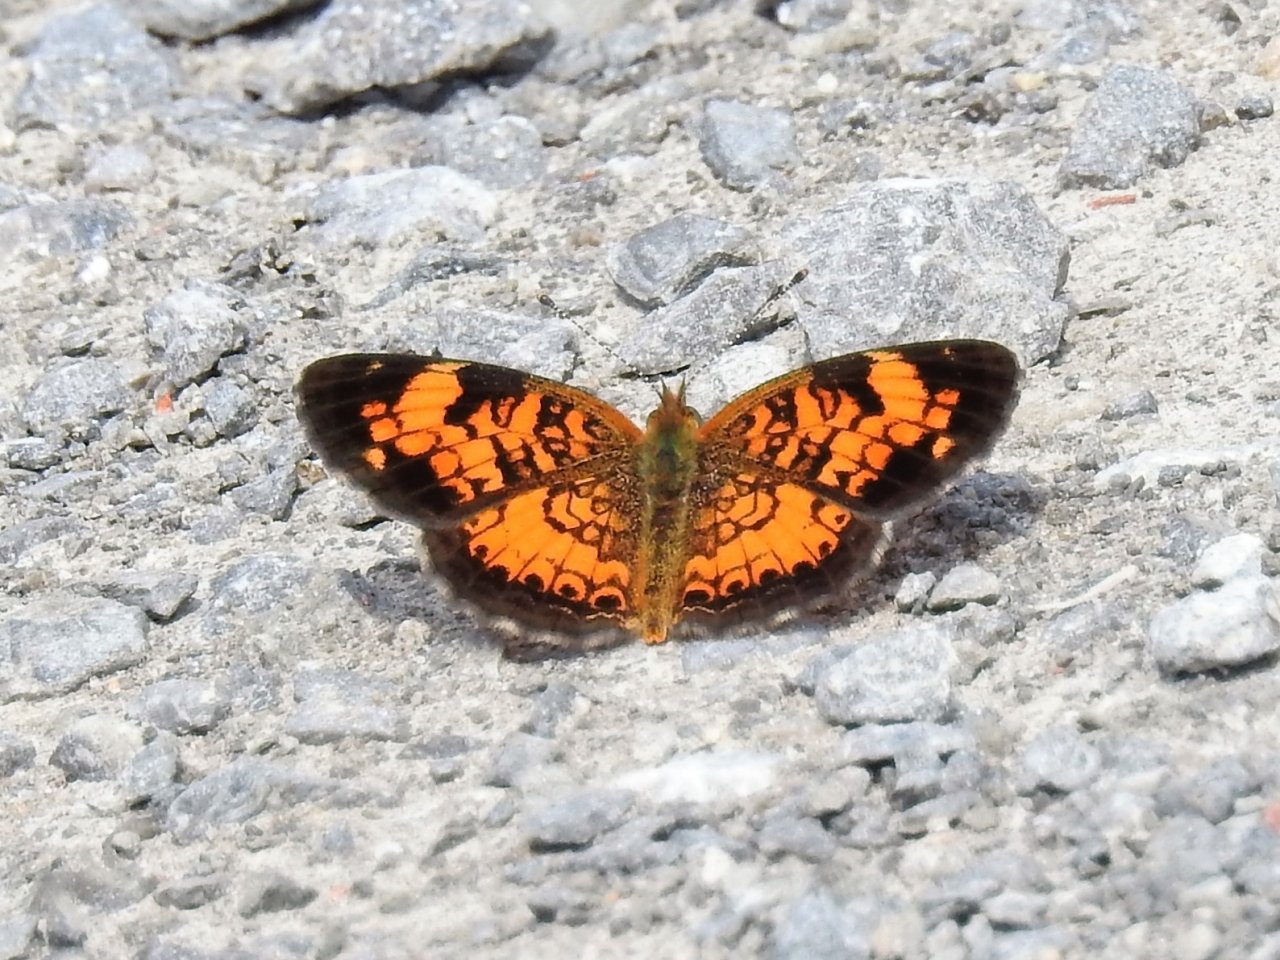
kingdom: Animalia
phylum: Arthropoda
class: Insecta
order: Lepidoptera
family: Nymphalidae
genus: Phyciodes
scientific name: Phyciodes tharos
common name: Northern Crescent
